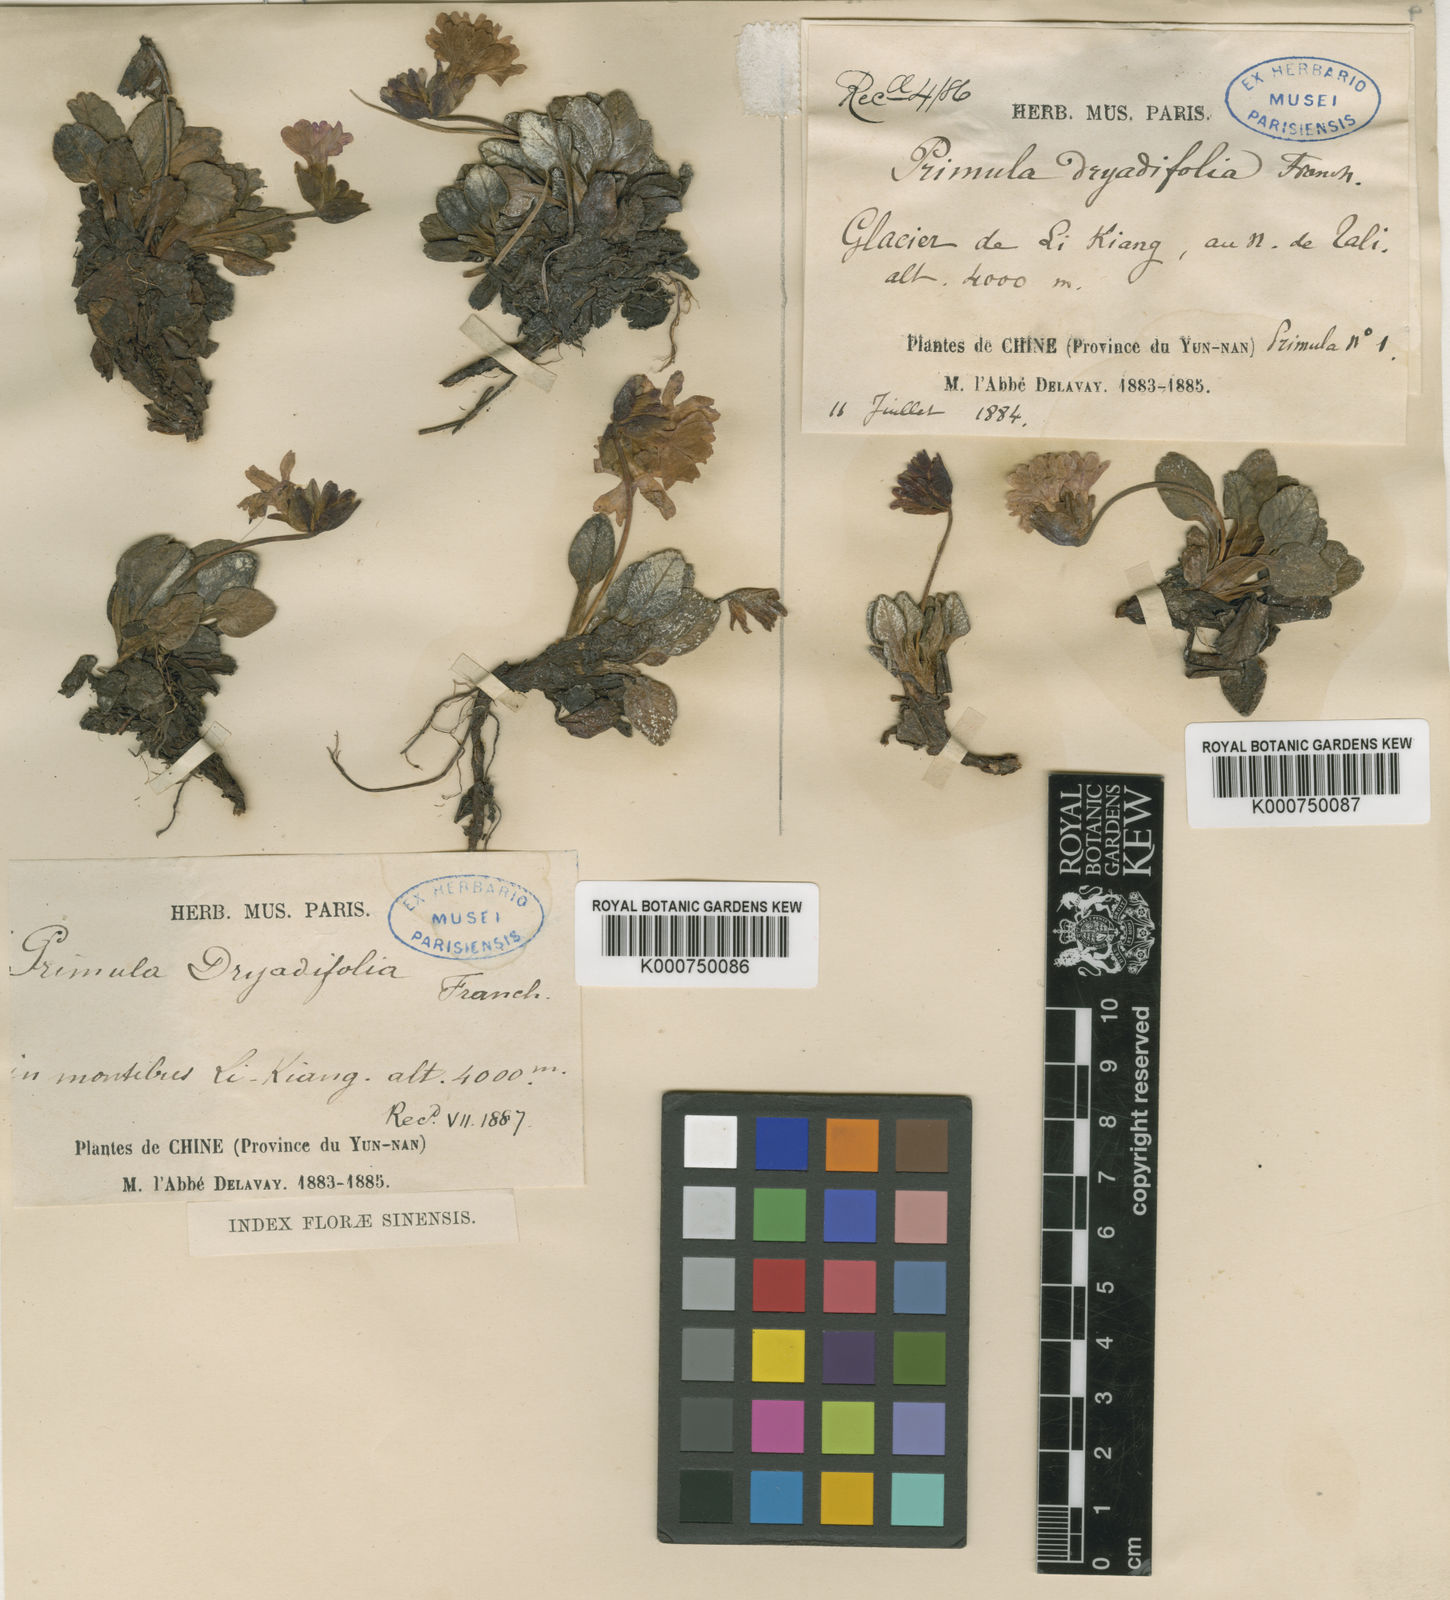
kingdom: Plantae
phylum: Tracheophyta
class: Magnoliopsida
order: Ericales
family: Primulaceae
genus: Primula
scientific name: Primula dryadifolia
